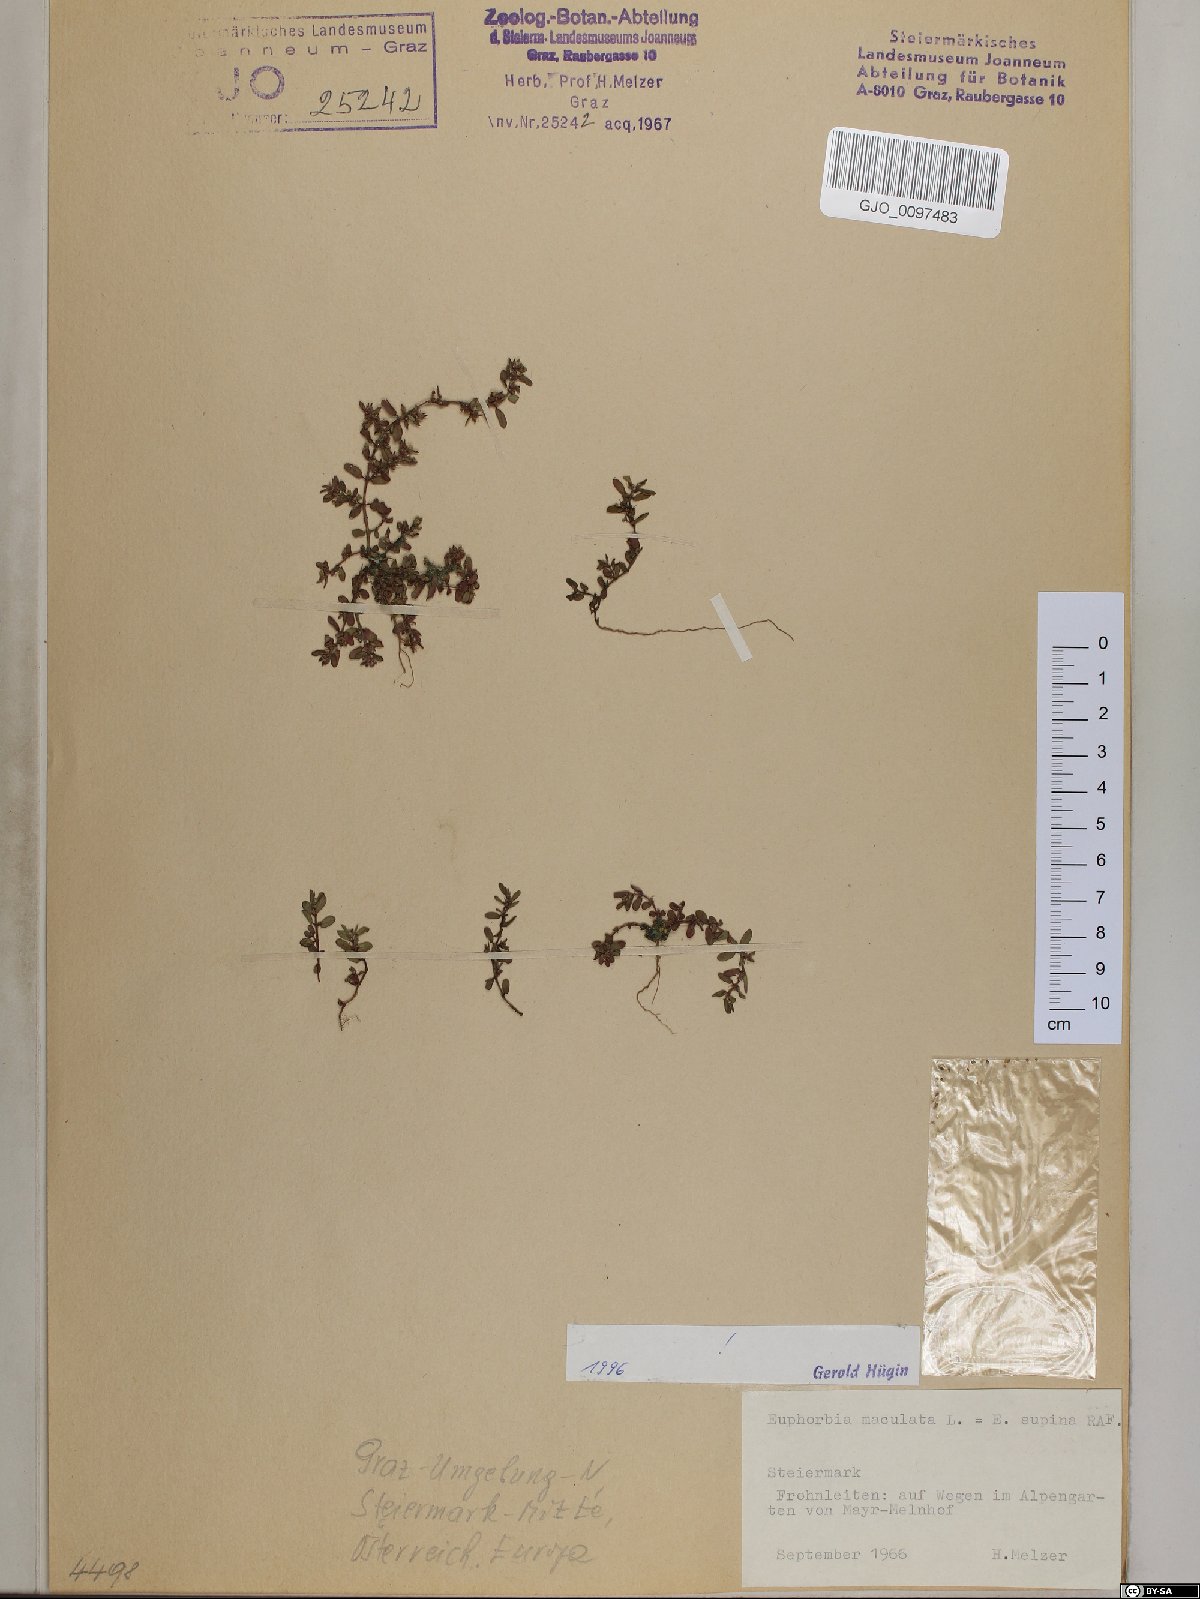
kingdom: Plantae
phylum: Tracheophyta
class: Magnoliopsida
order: Malpighiales
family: Euphorbiaceae
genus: Euphorbia
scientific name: Euphorbia maculata
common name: Spotted spurge
